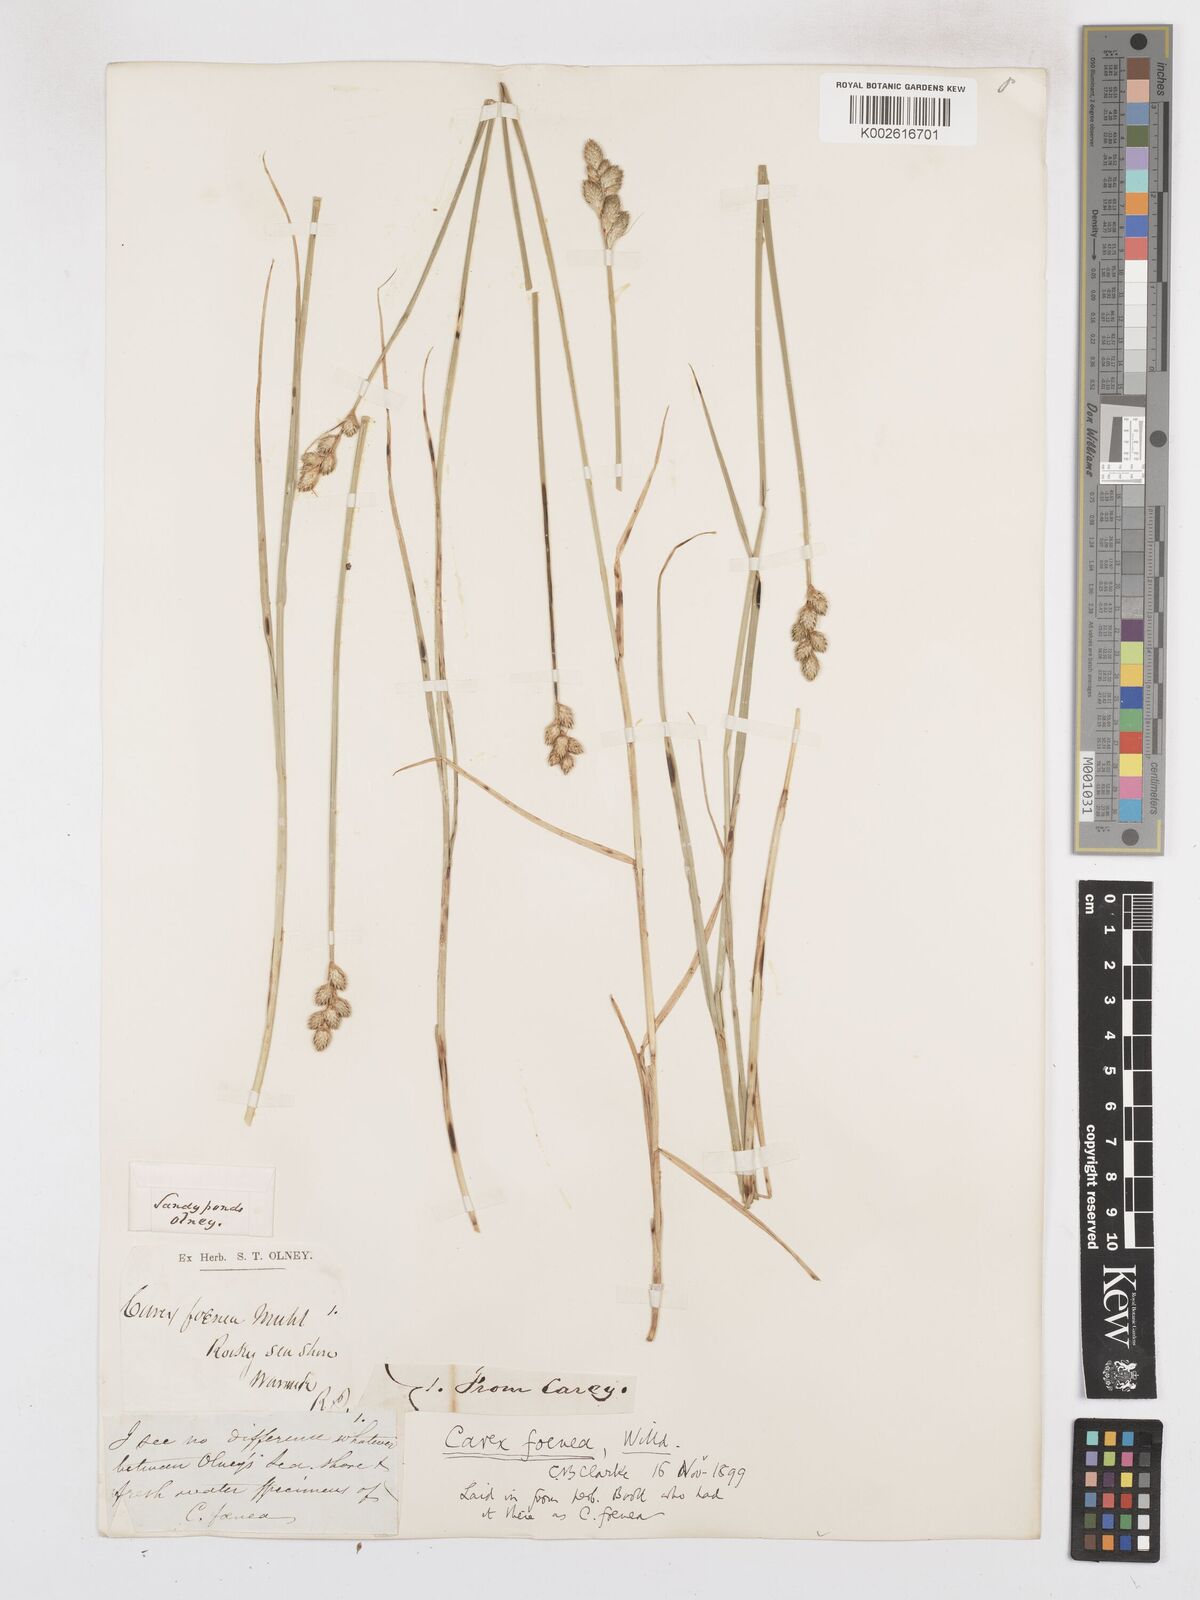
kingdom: Plantae
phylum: Tracheophyta
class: Liliopsida
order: Poales
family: Cyperaceae
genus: Carex
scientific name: Carex argyrantha
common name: Silvery-flowered sedge
